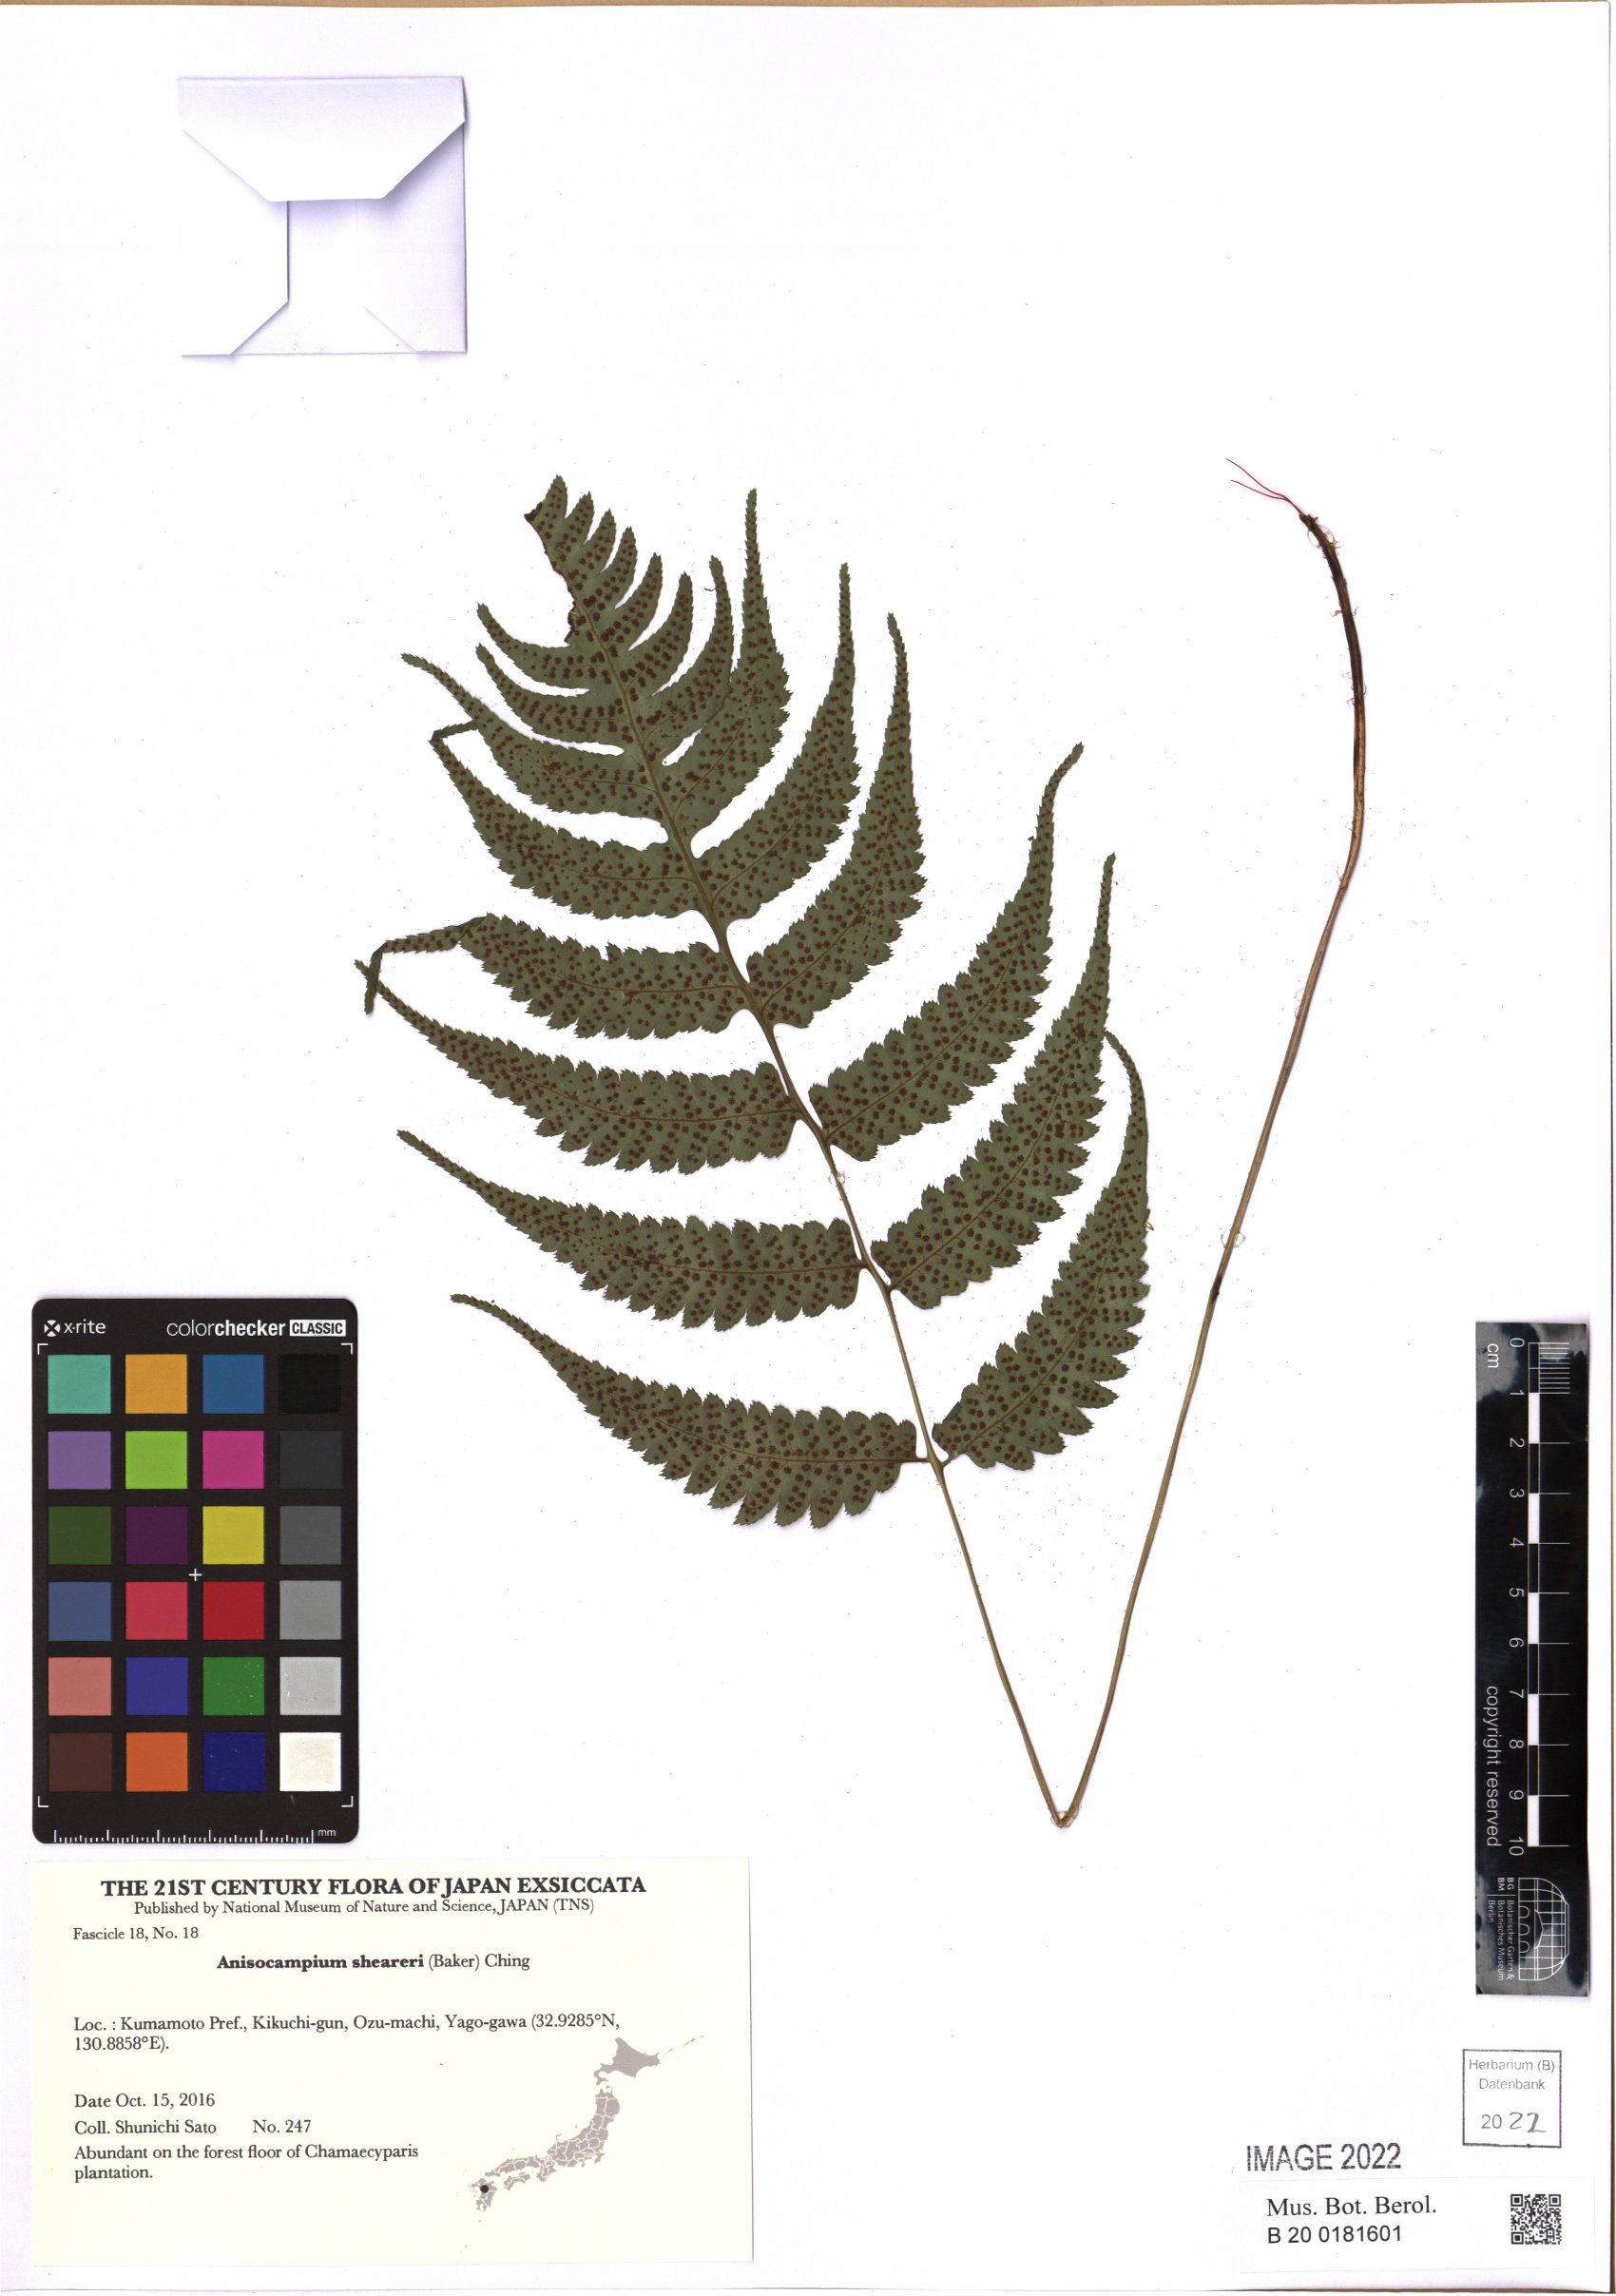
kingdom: Plantae
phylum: Tracheophyta
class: Polypodiopsida
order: Polypodiales
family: Athyriaceae
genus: Anisocampium
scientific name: Anisocampium sheareri
